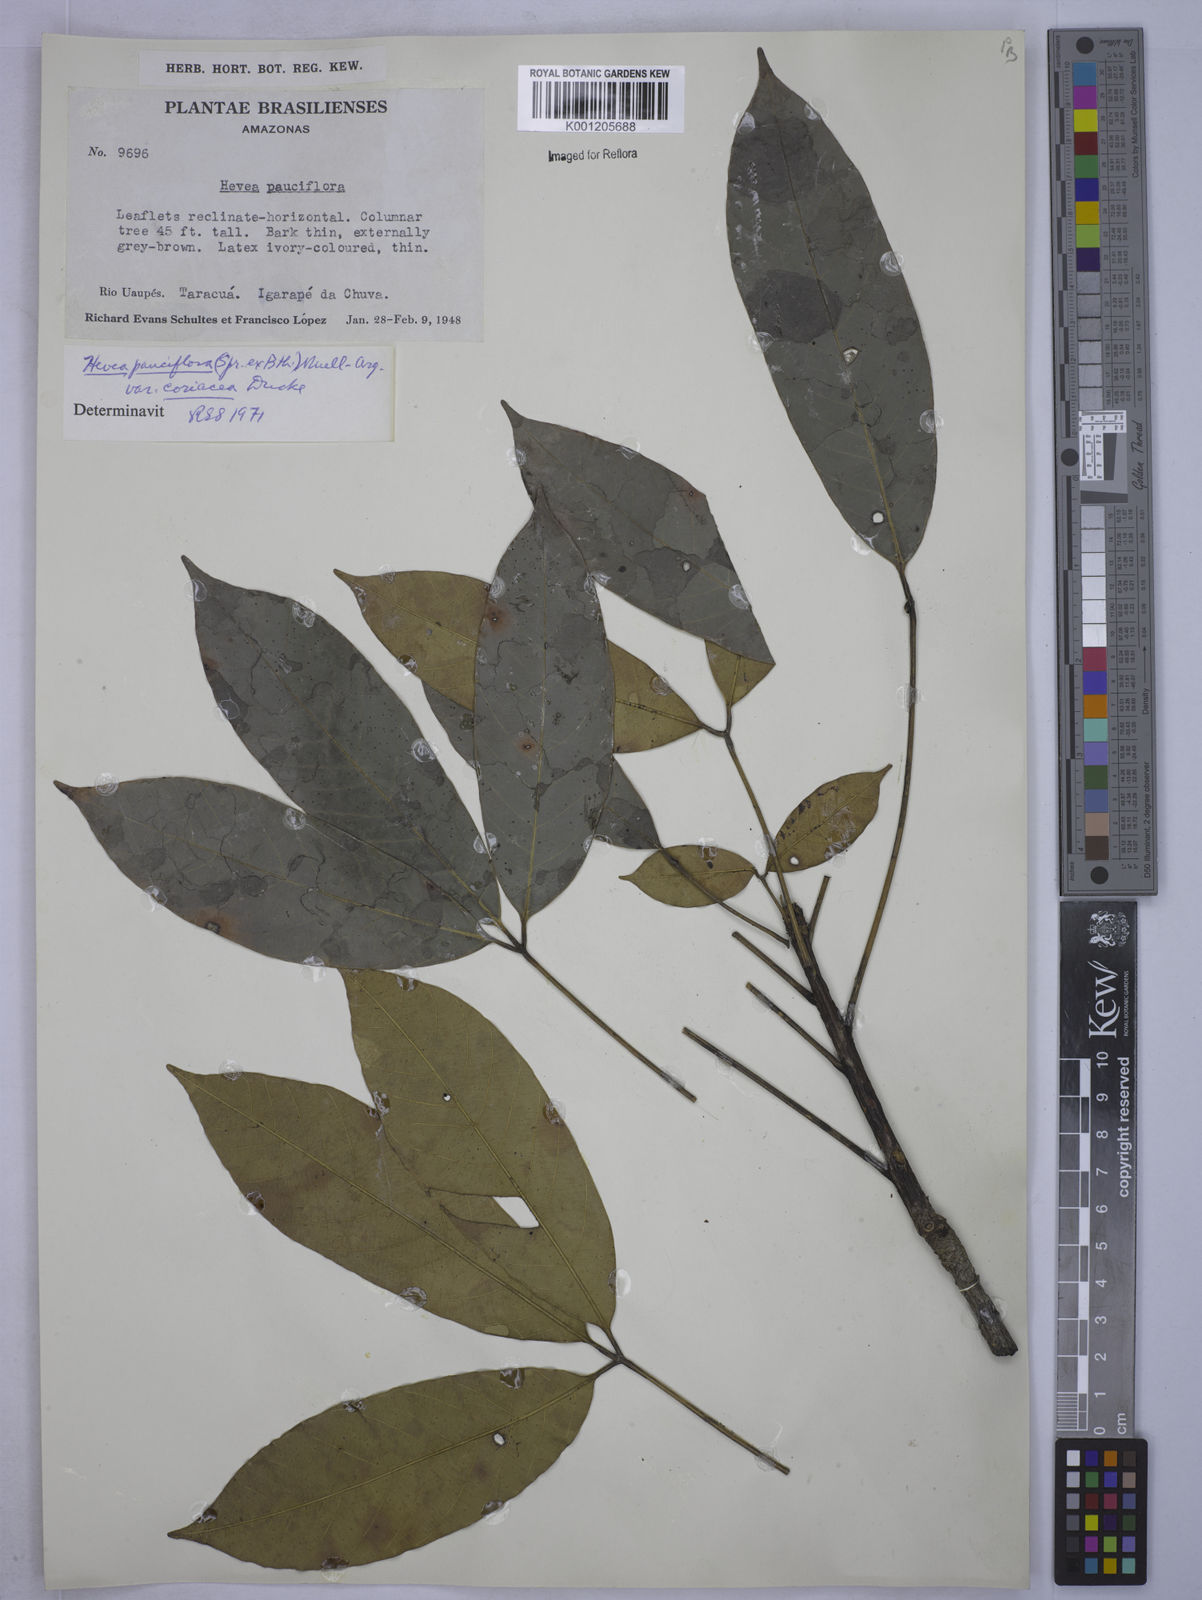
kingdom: Plantae
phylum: Tracheophyta
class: Magnoliopsida
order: Malpighiales
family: Euphorbiaceae
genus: Hevea
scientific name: Hevea pauciflora
